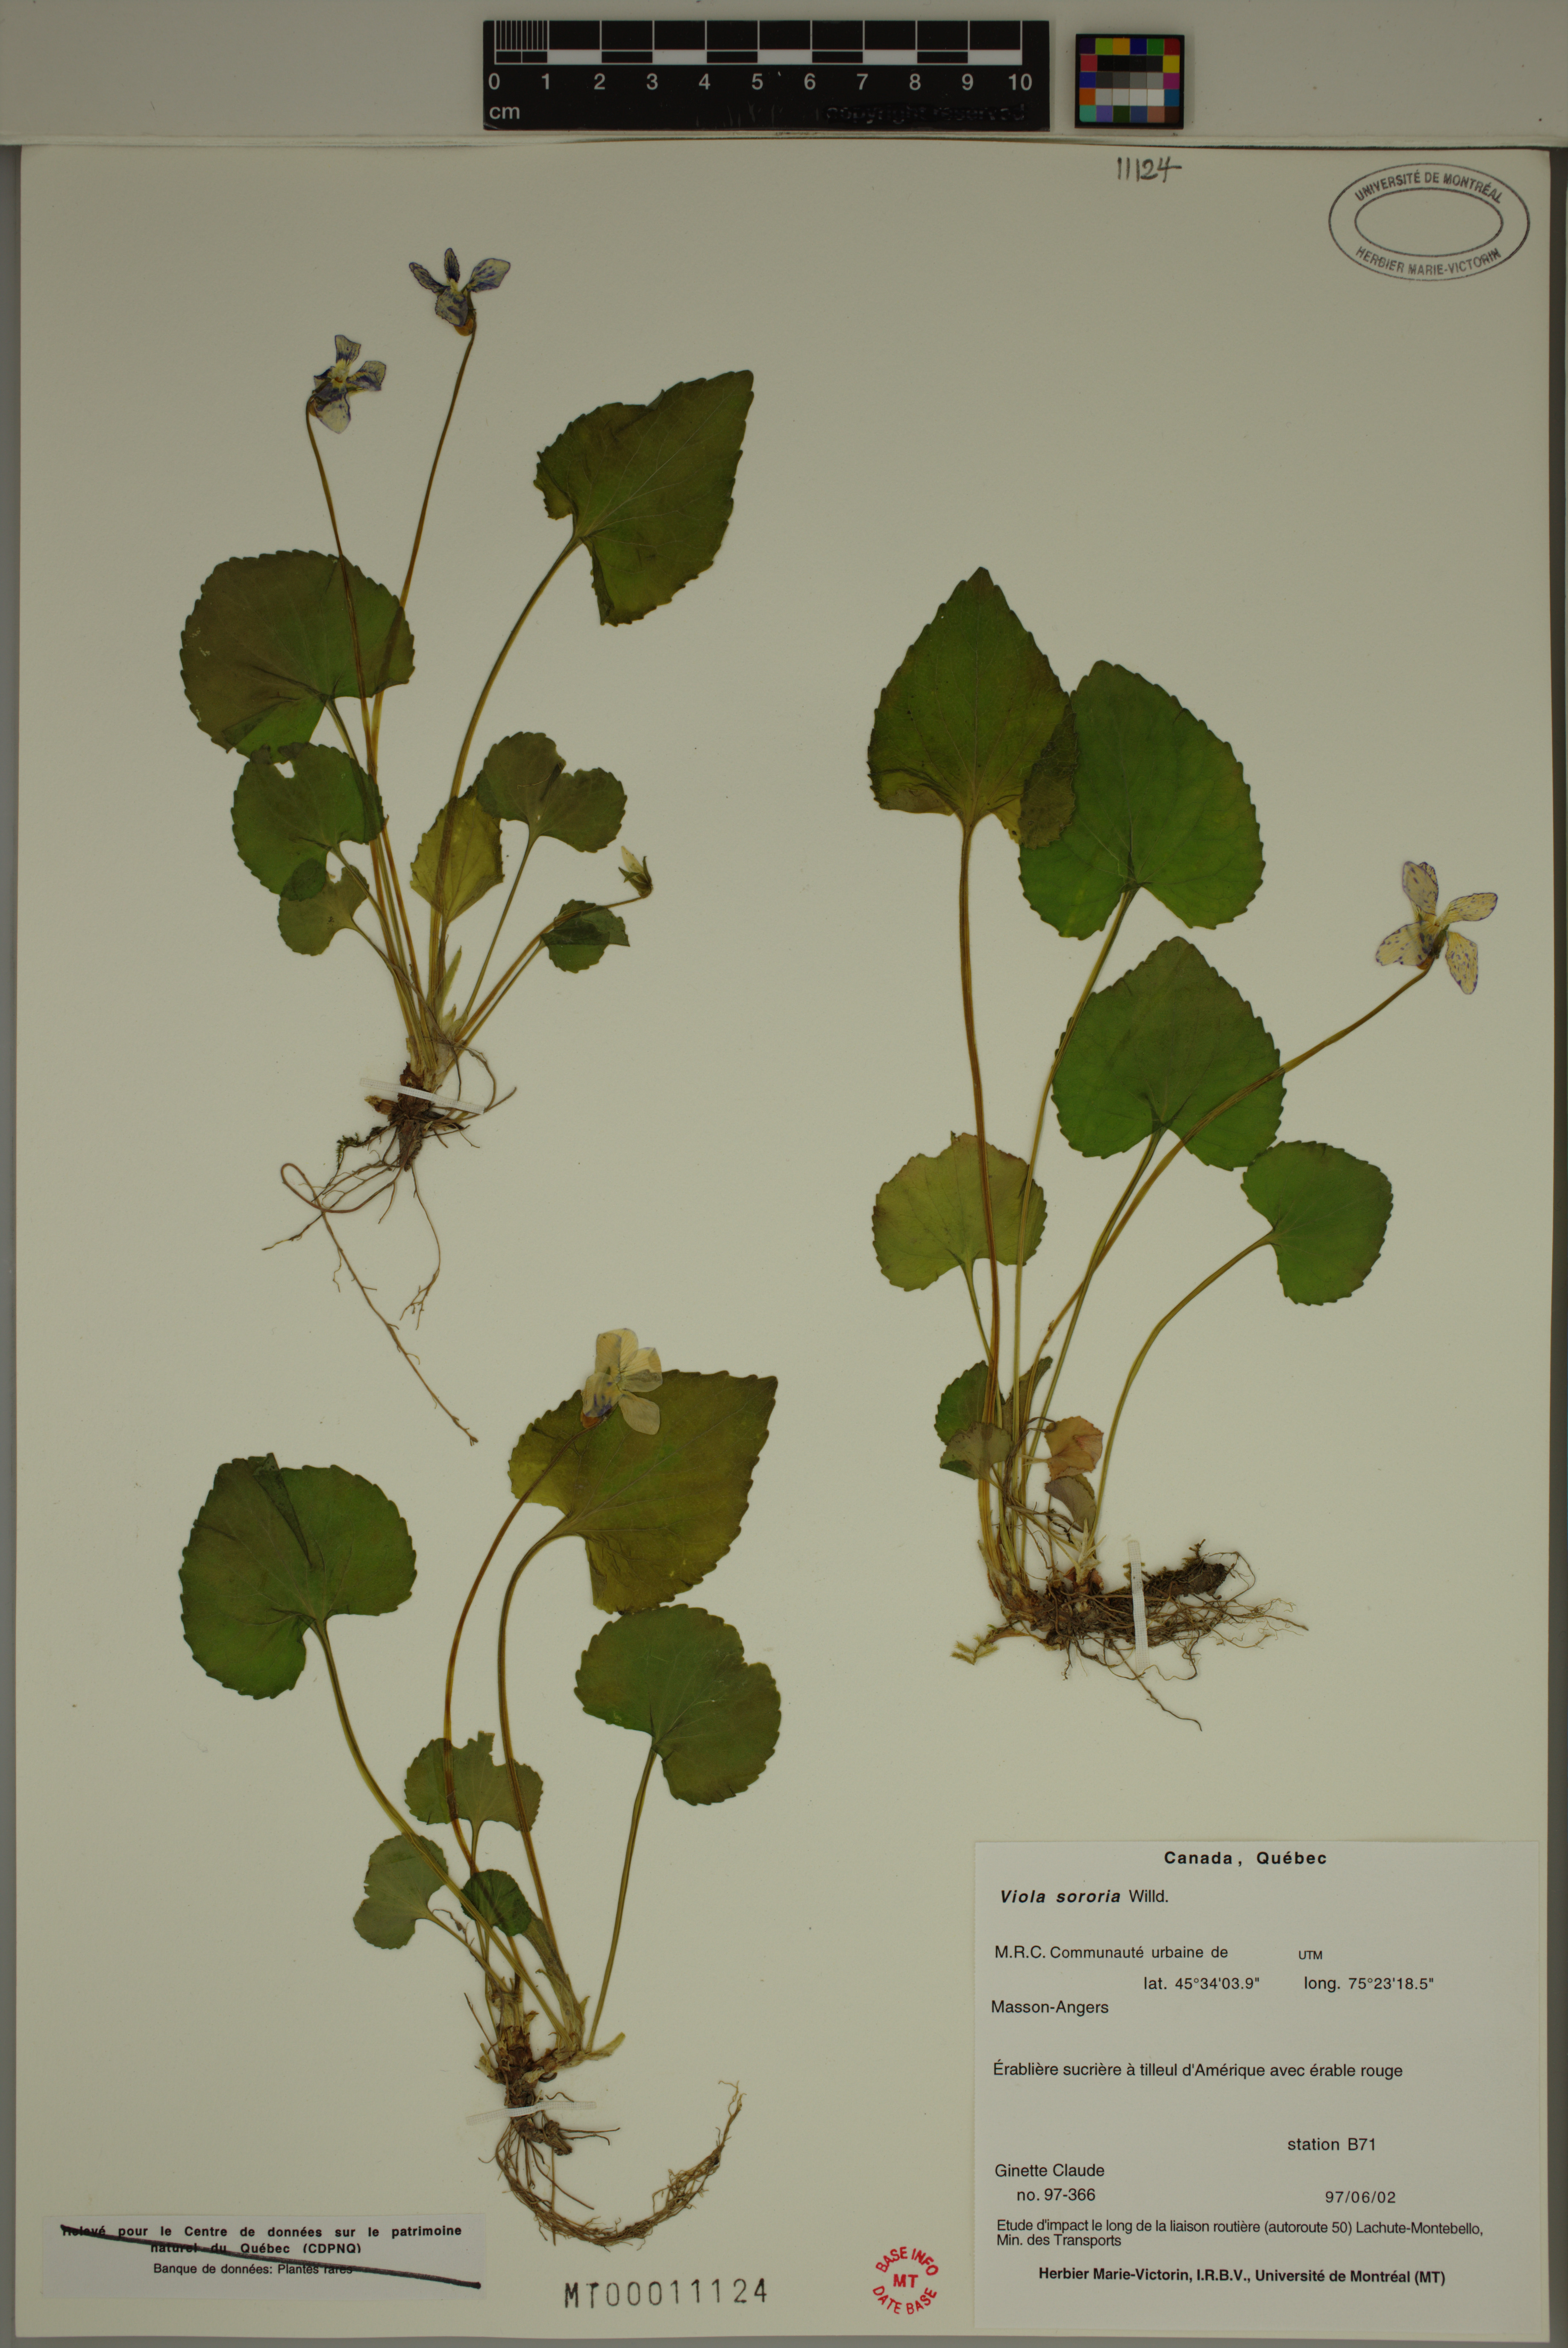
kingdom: Plantae
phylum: Tracheophyta
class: Magnoliopsida
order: Malpighiales
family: Violaceae
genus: Viola
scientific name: Viola sororia
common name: Dooryard violet
